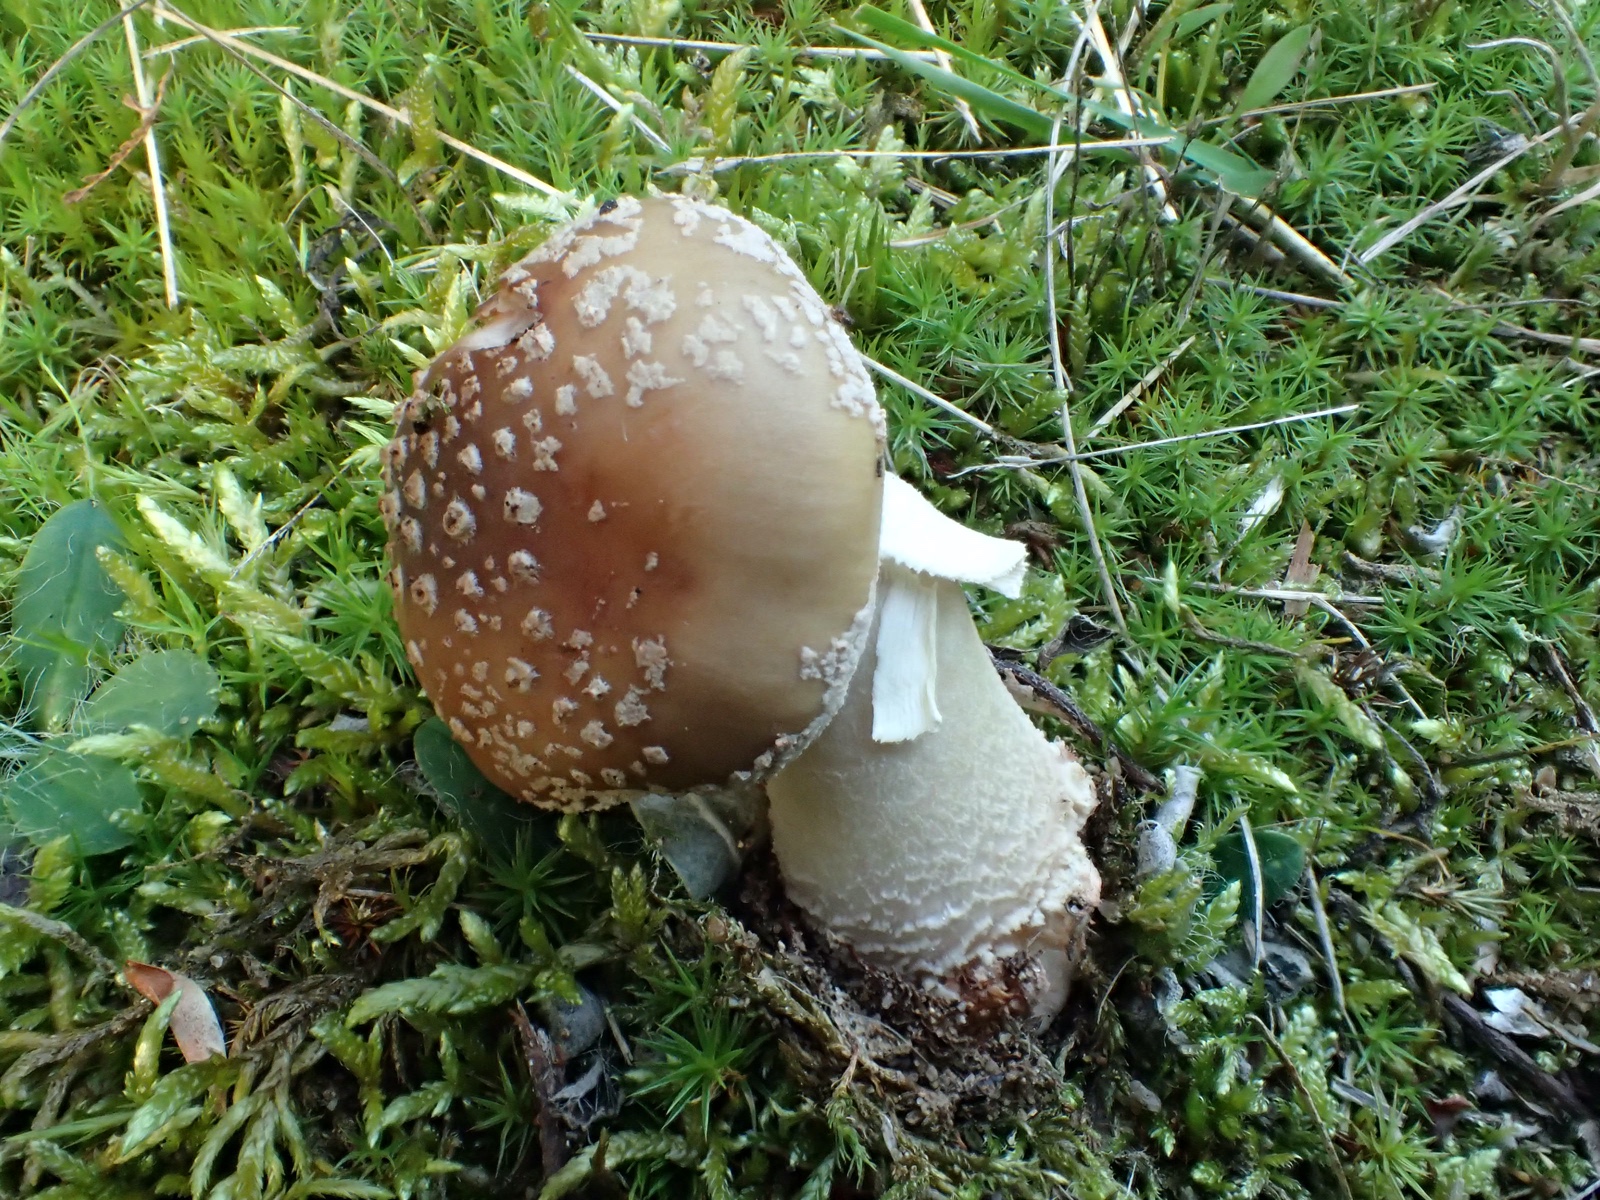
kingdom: Fungi
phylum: Basidiomycota
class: Agaricomycetes
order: Agaricales
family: Amanitaceae
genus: Amanita
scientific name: Amanita rubescens
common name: rødmende fluesvamp
